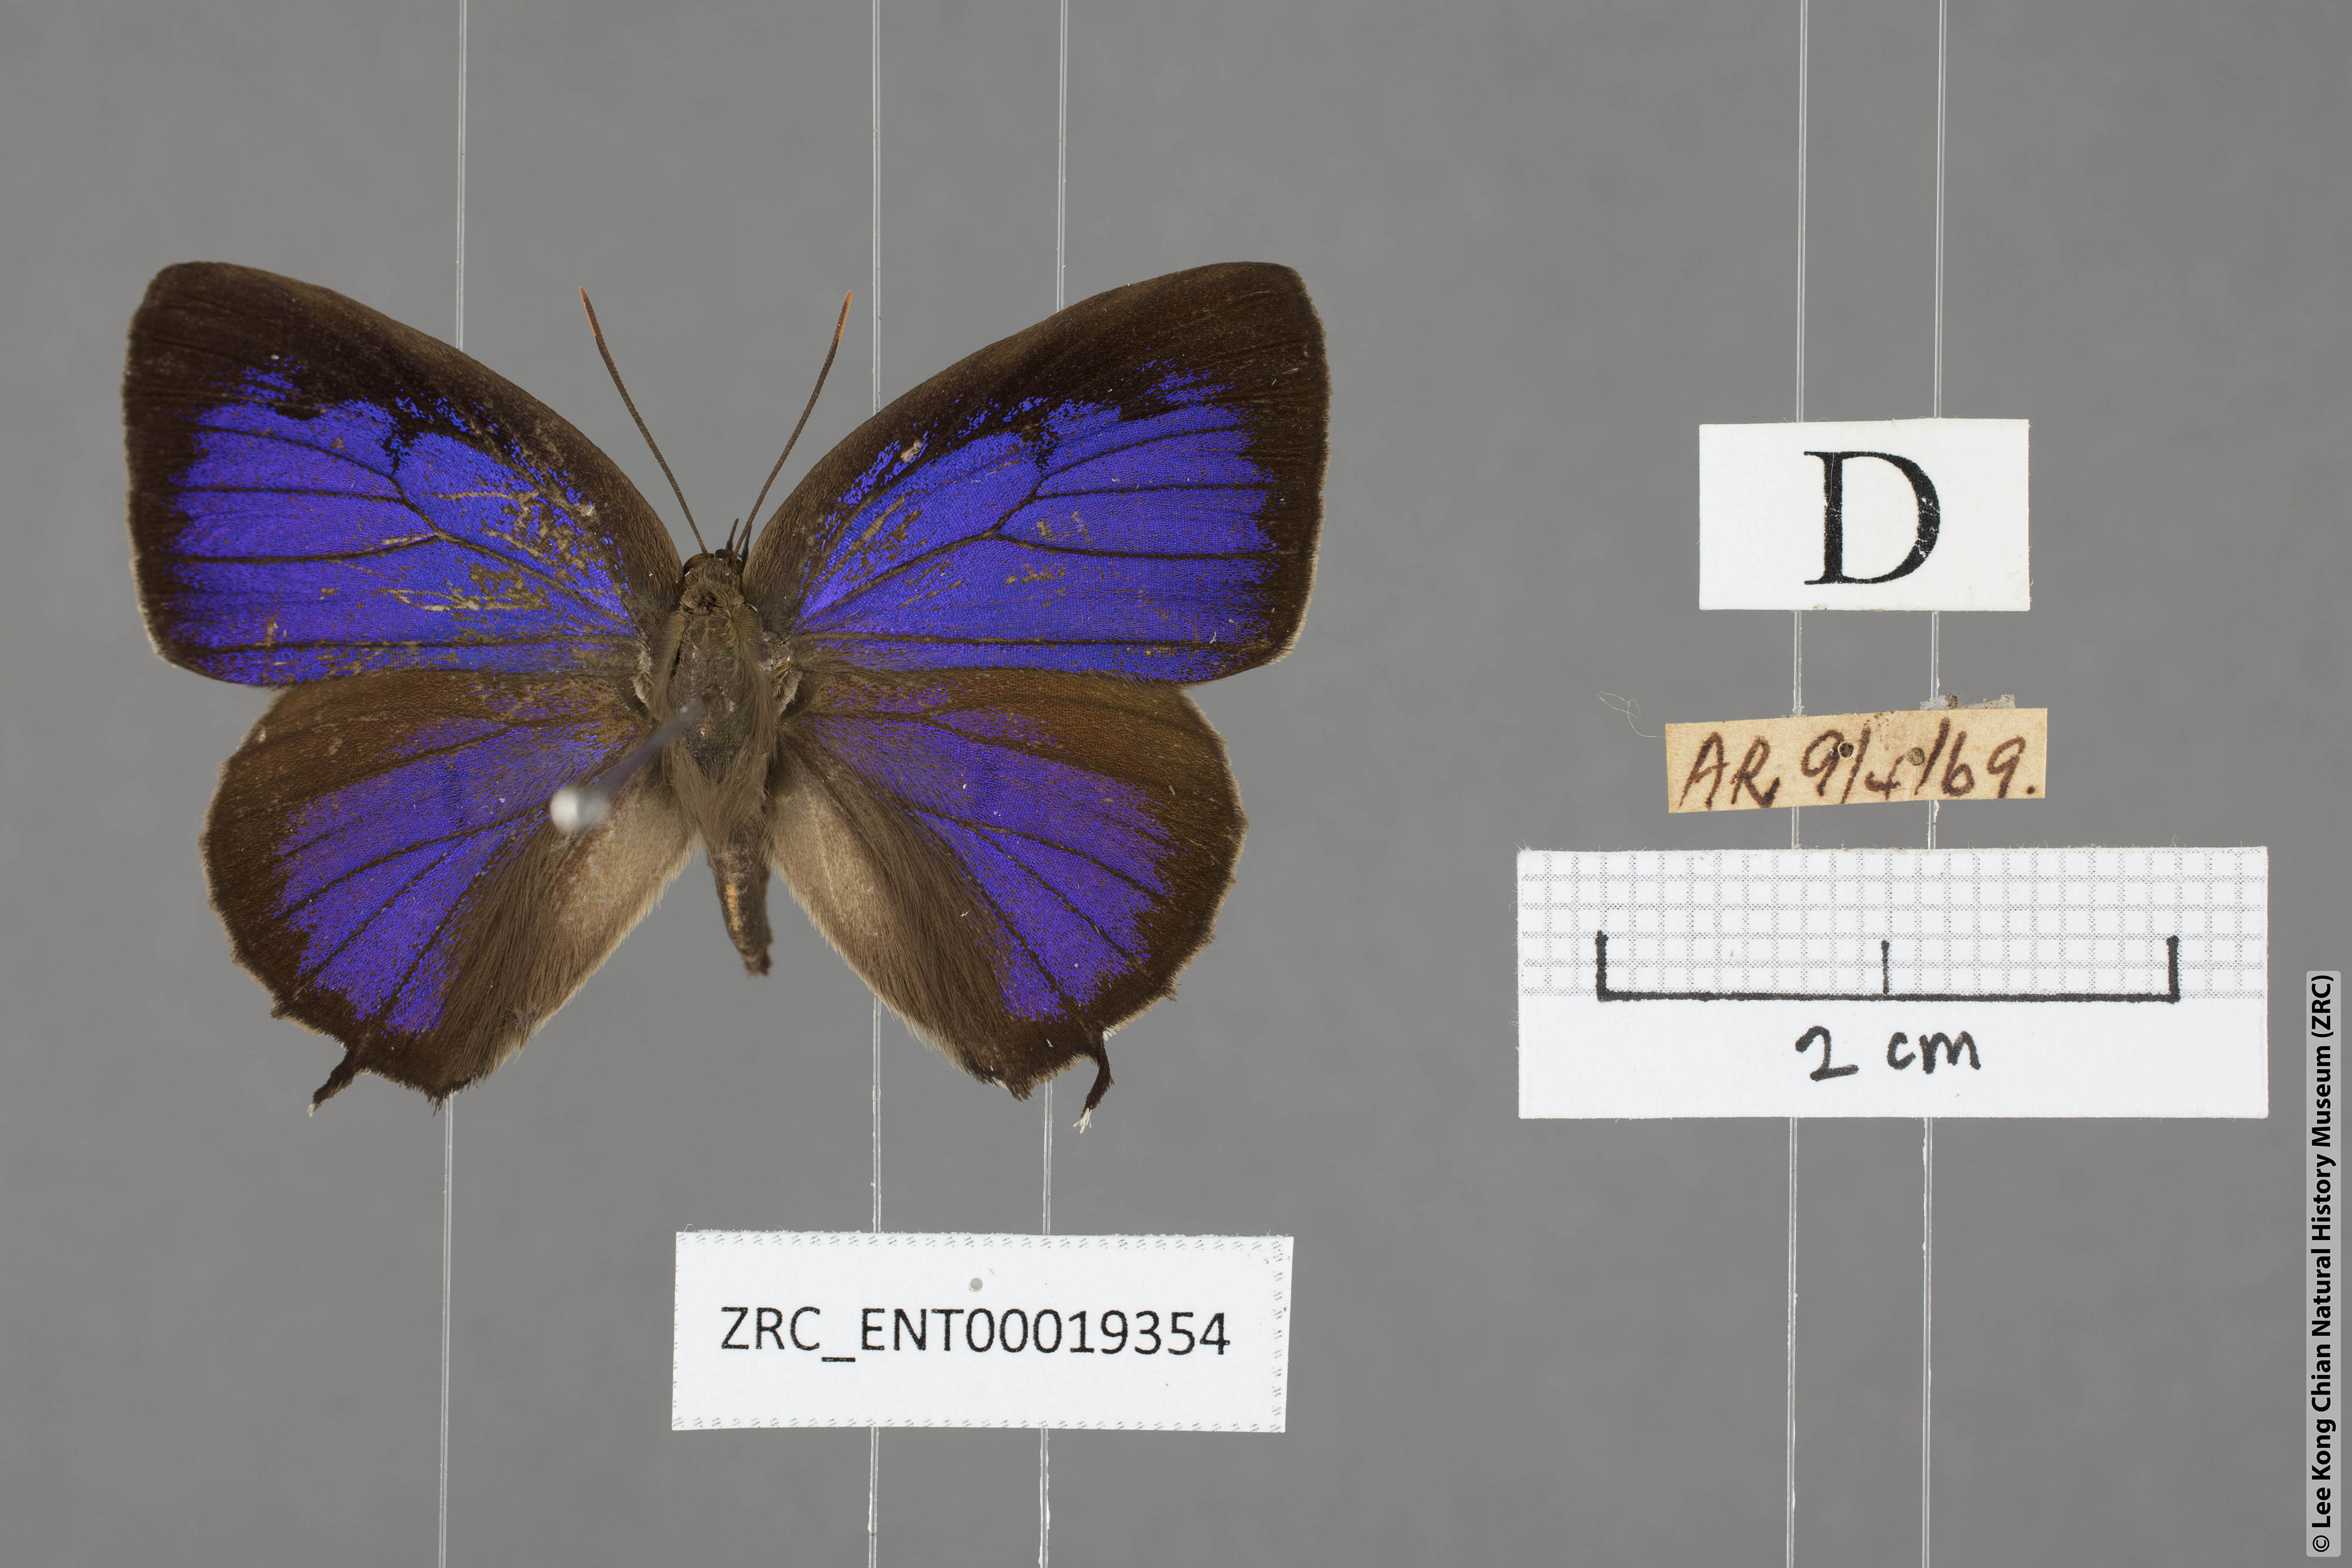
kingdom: Animalia
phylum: Arthropoda
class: Insecta
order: Lepidoptera
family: Lycaenidae
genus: Arhopala
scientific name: Arhopala corinda
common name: Ultramarine oakblue
